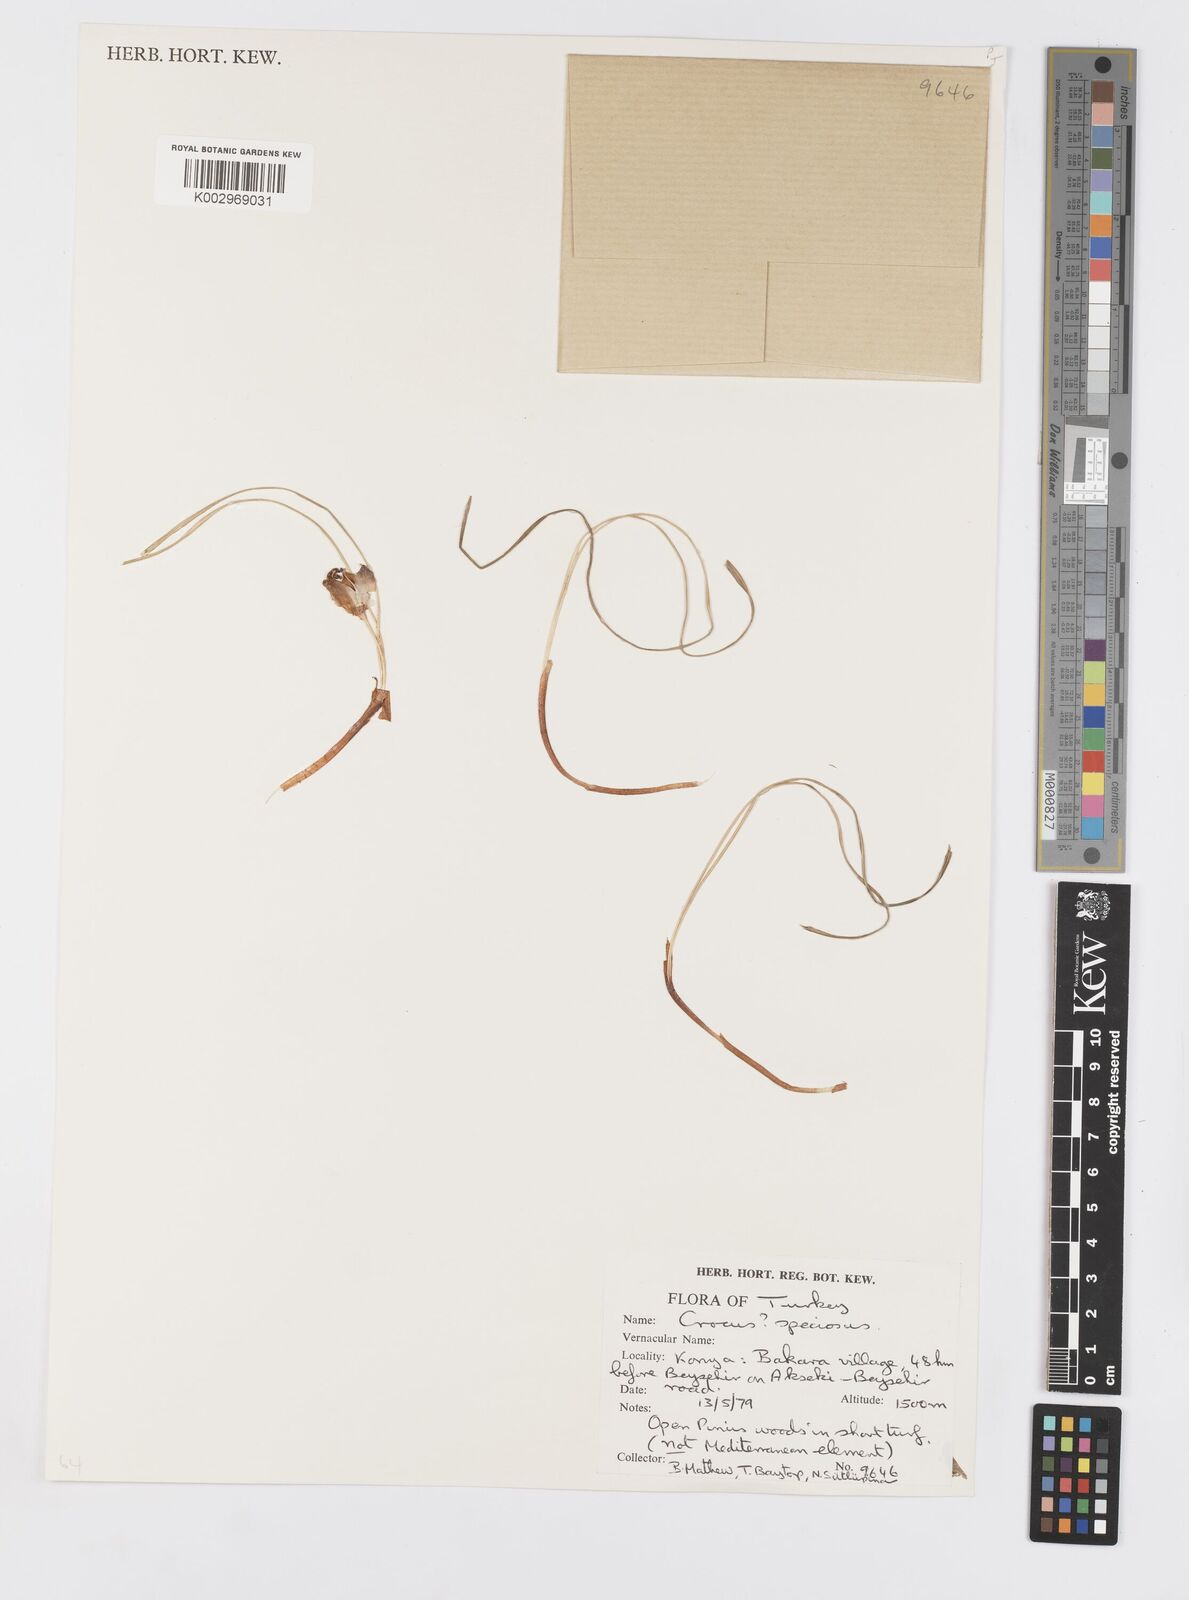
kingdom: Plantae
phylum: Tracheophyta
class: Liliopsida
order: Asparagales
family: Iridaceae
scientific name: Iridaceae
